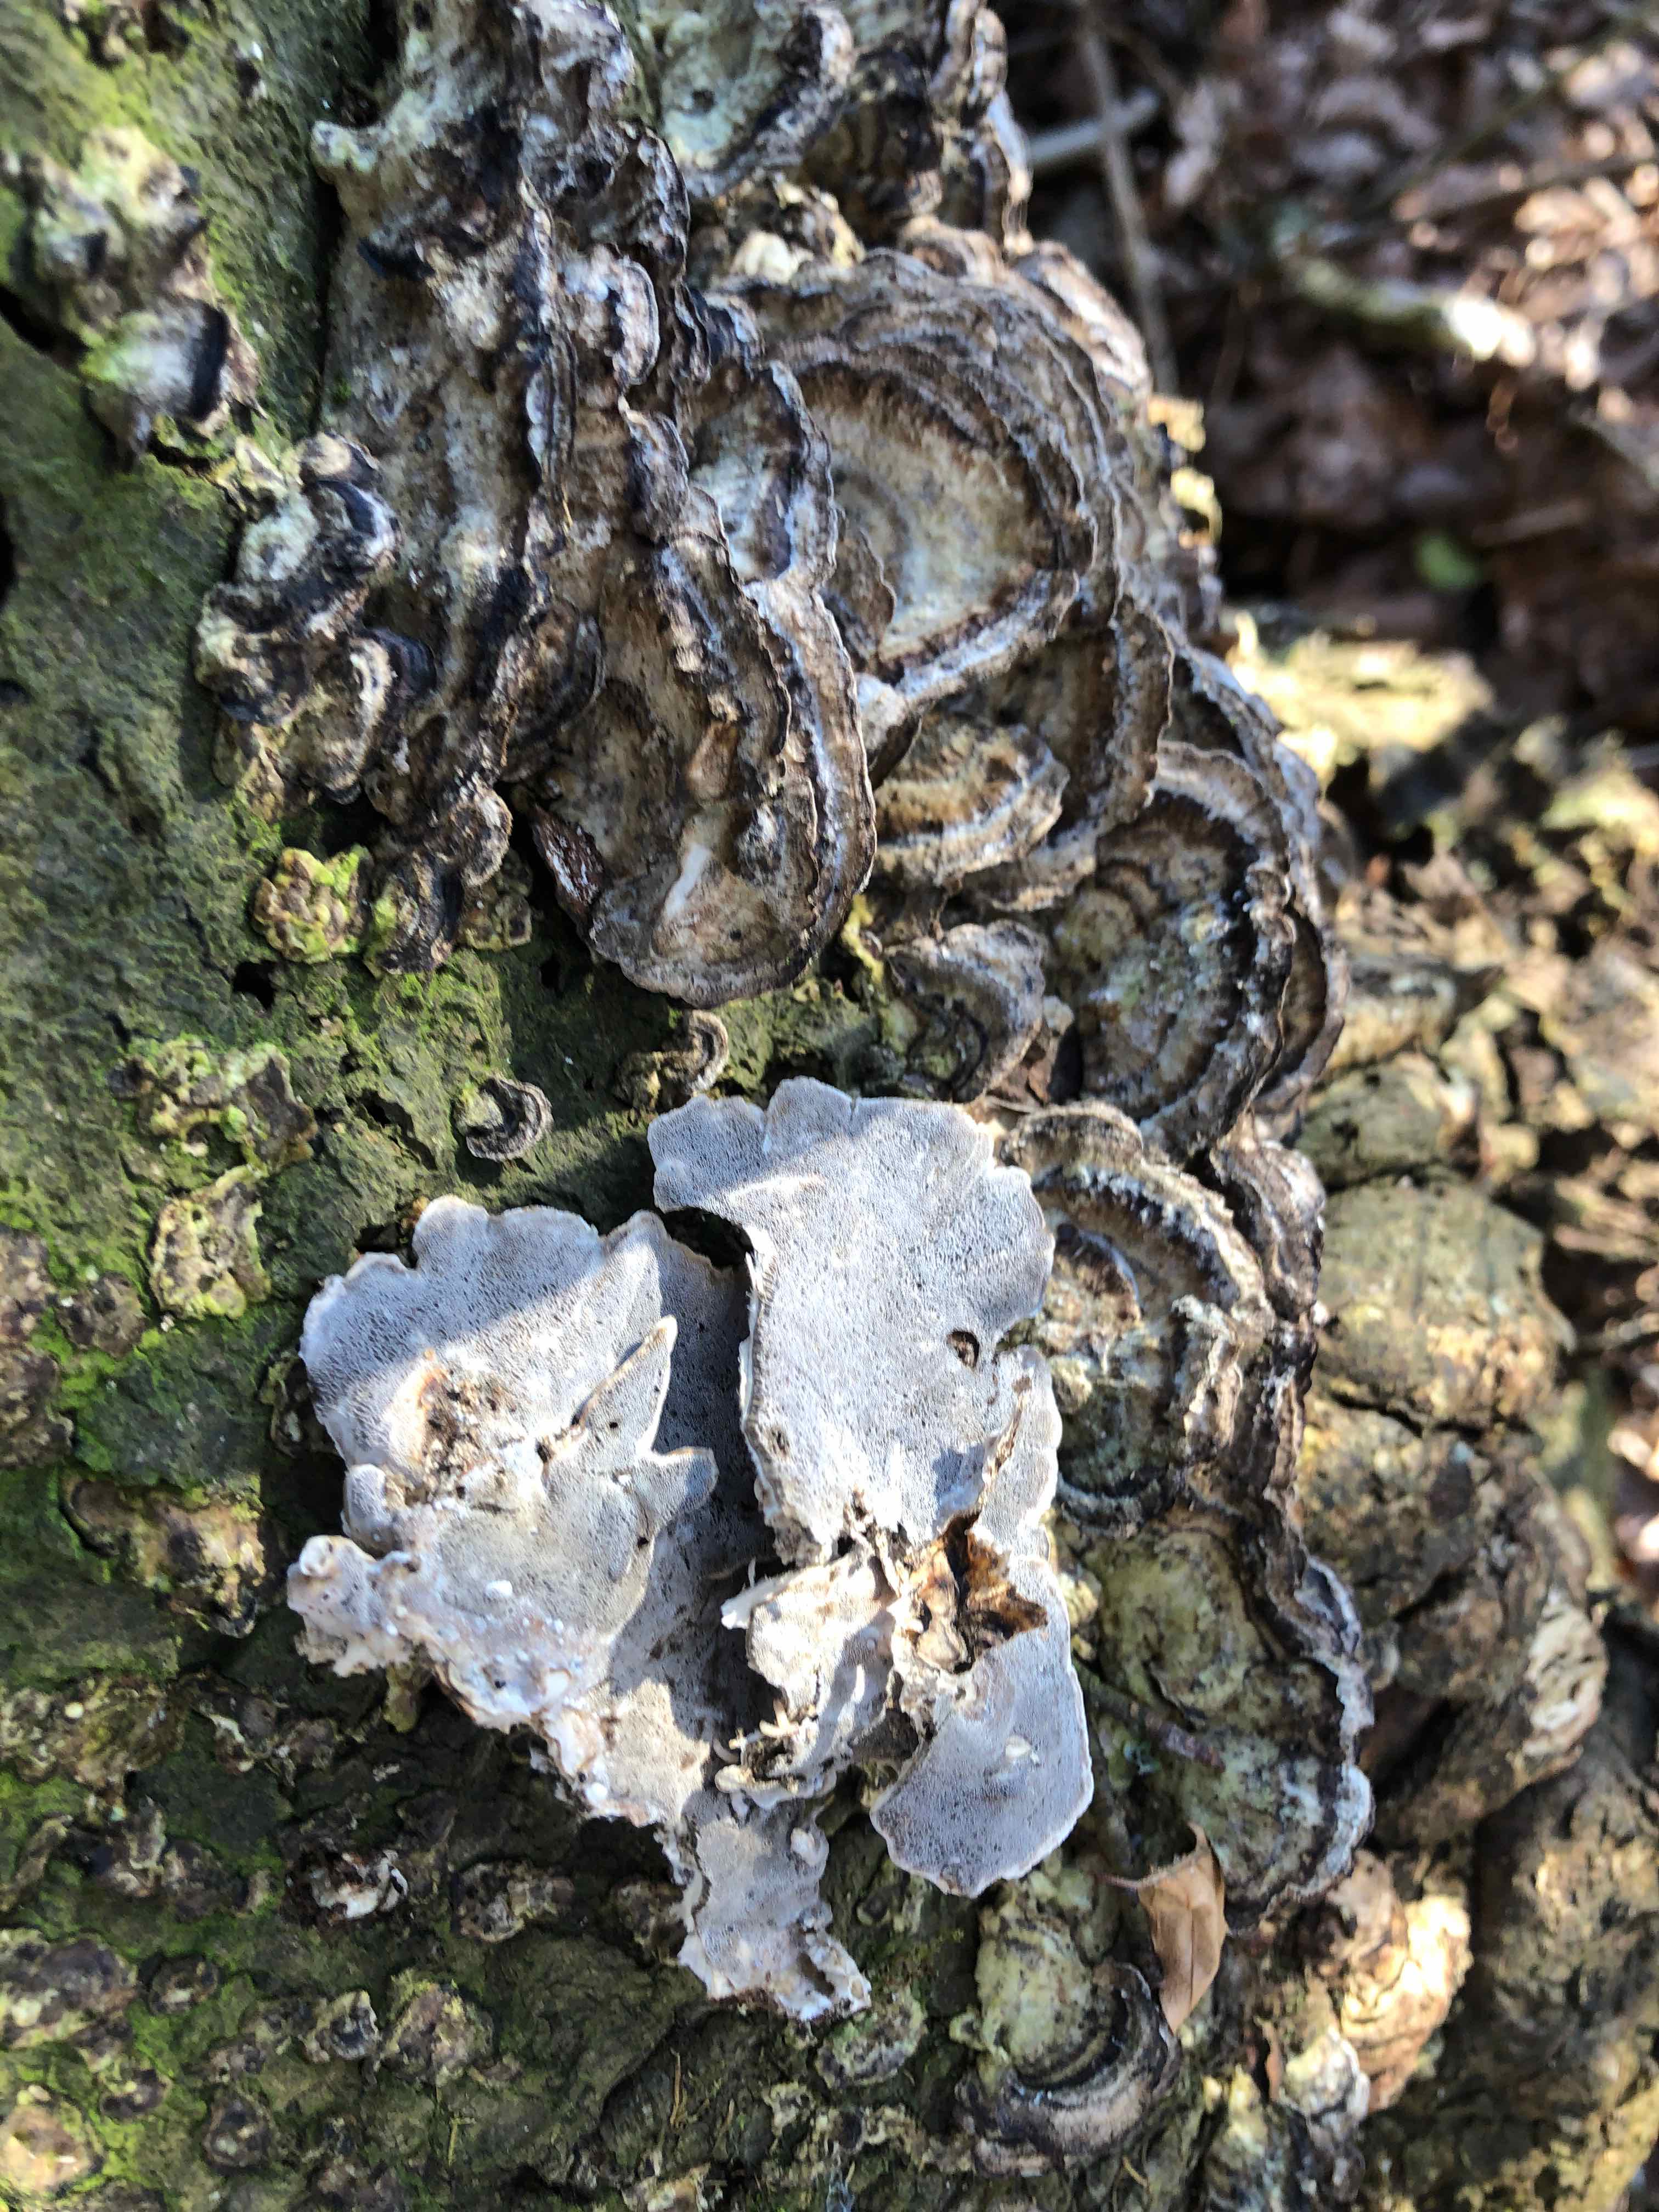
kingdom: Fungi
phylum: Basidiomycota
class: Agaricomycetes
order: Polyporales
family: Phanerochaetaceae
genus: Bjerkandera
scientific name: Bjerkandera adusta
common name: sveden sodporesvamp
